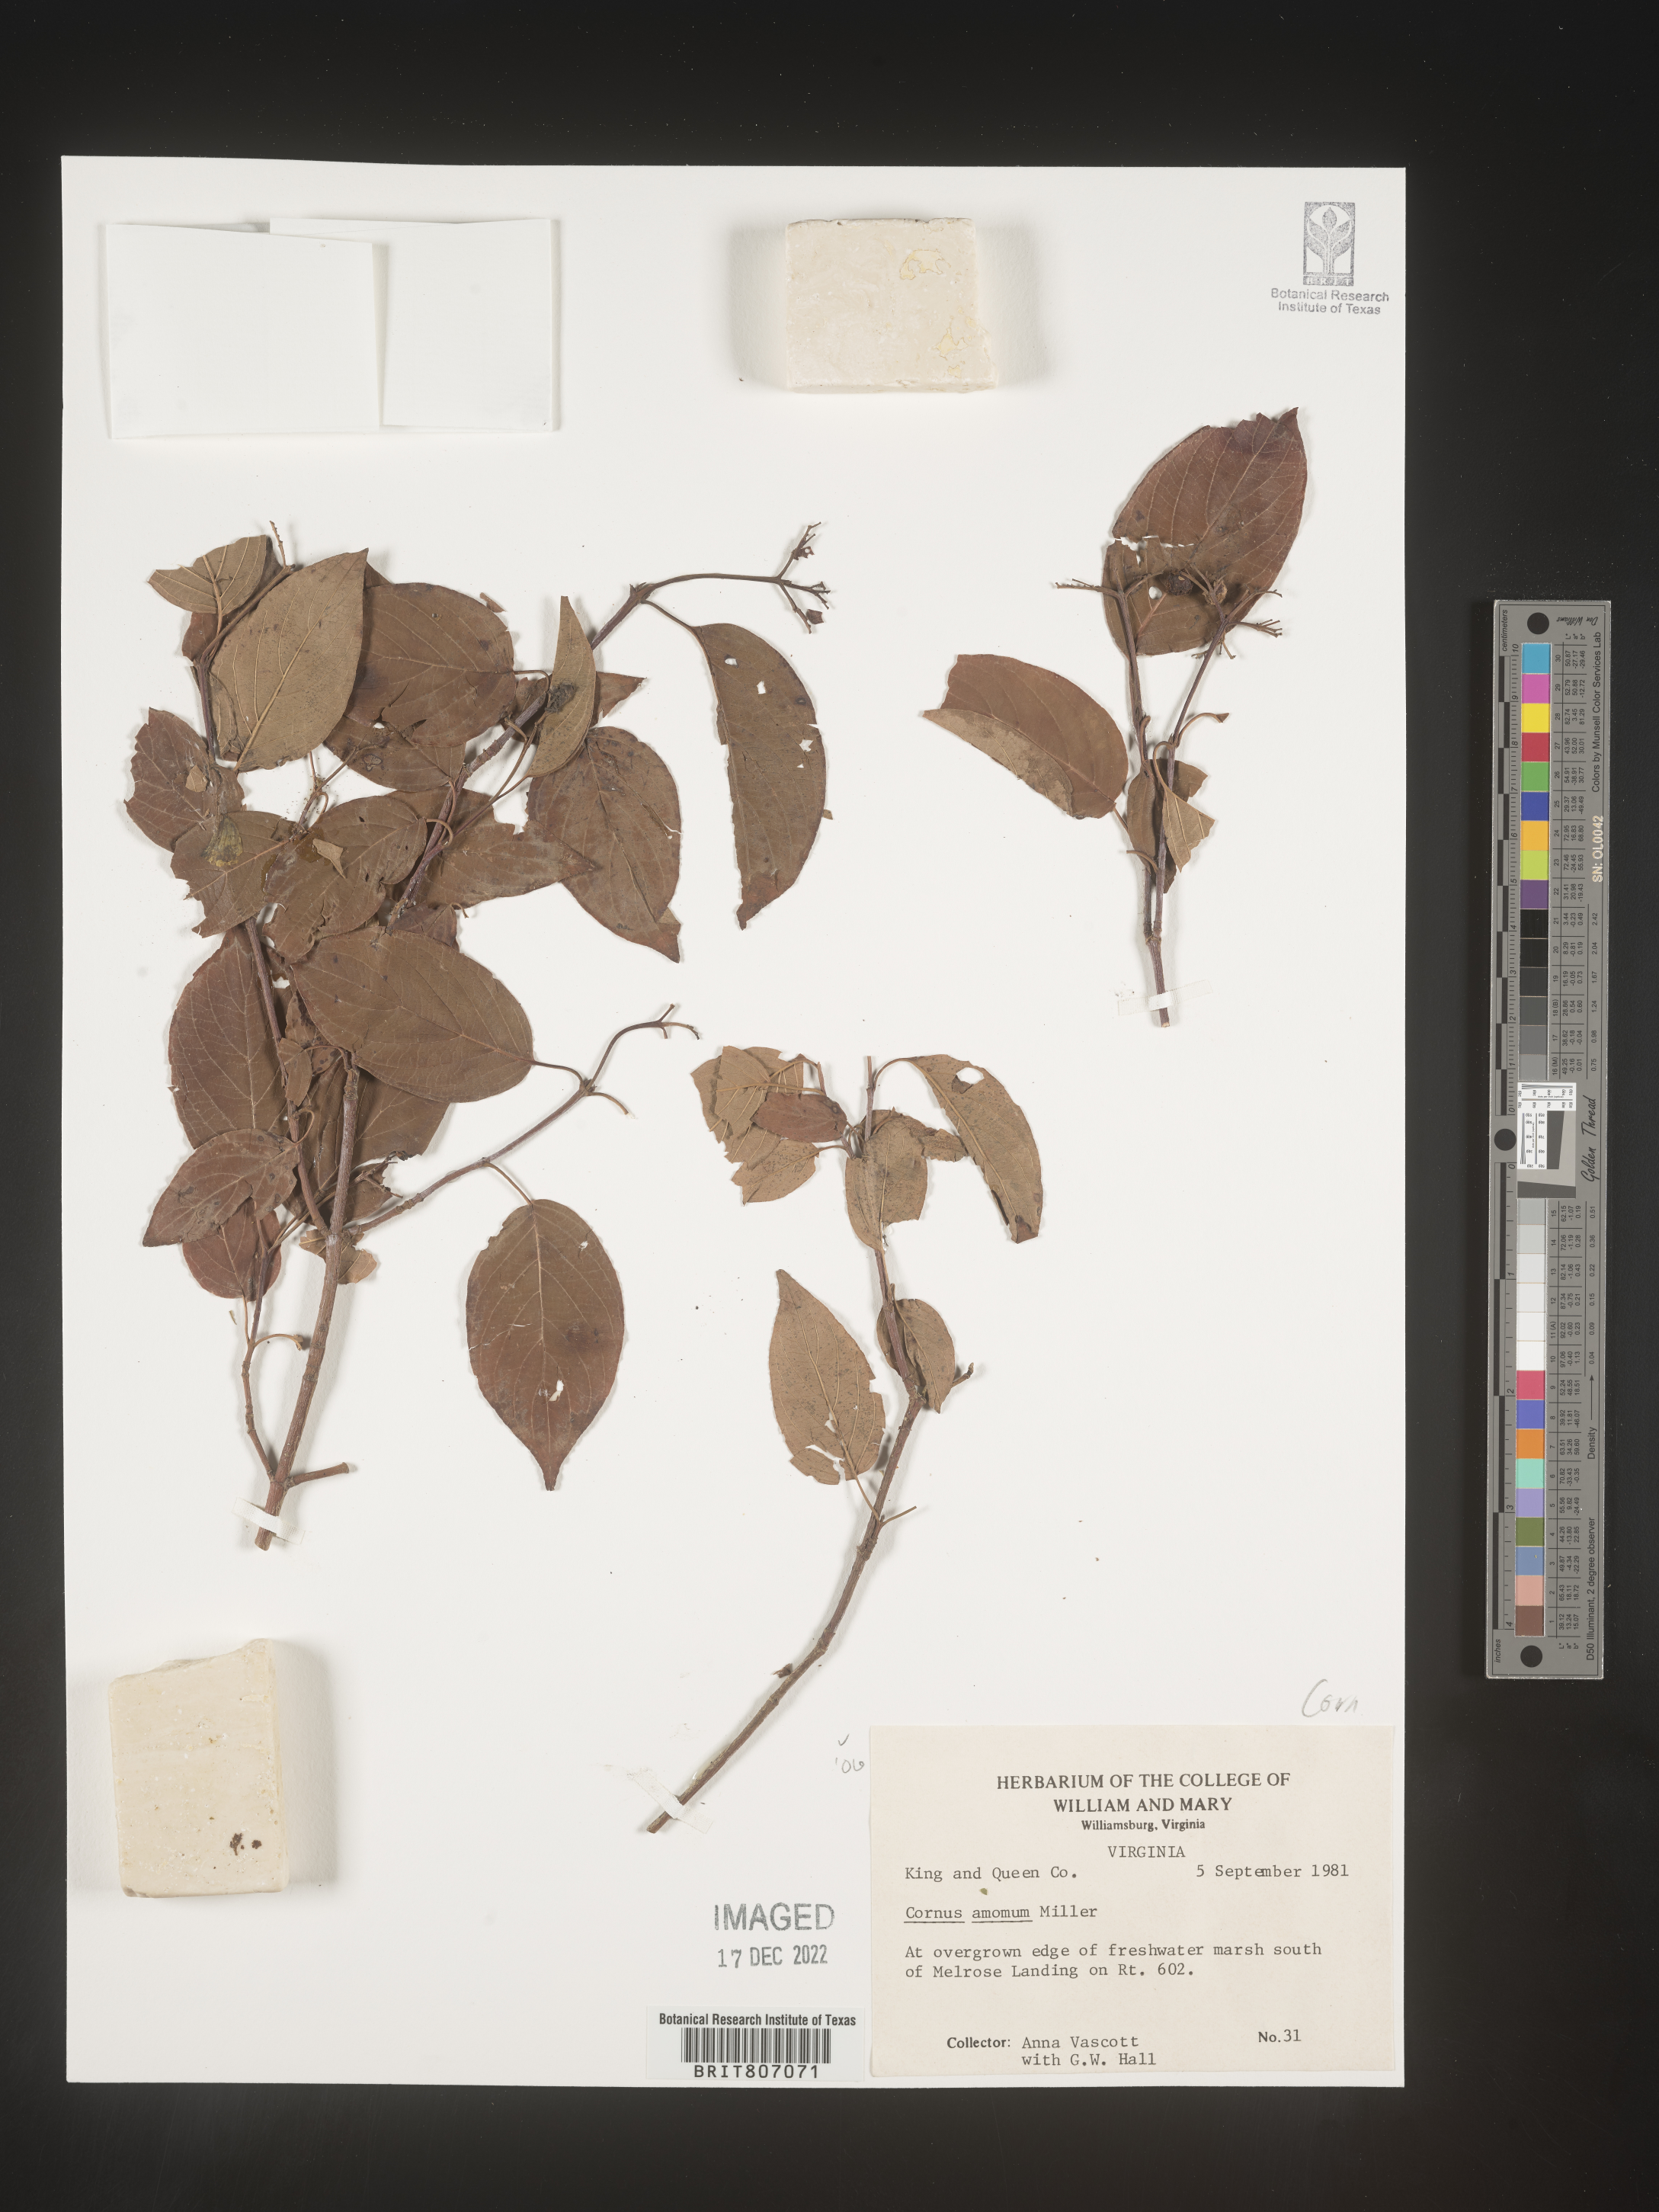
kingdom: Plantae
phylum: Tracheophyta
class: Magnoliopsida
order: Cornales
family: Cornaceae
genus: Cornus
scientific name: Cornus amomum
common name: Silky dogwood
